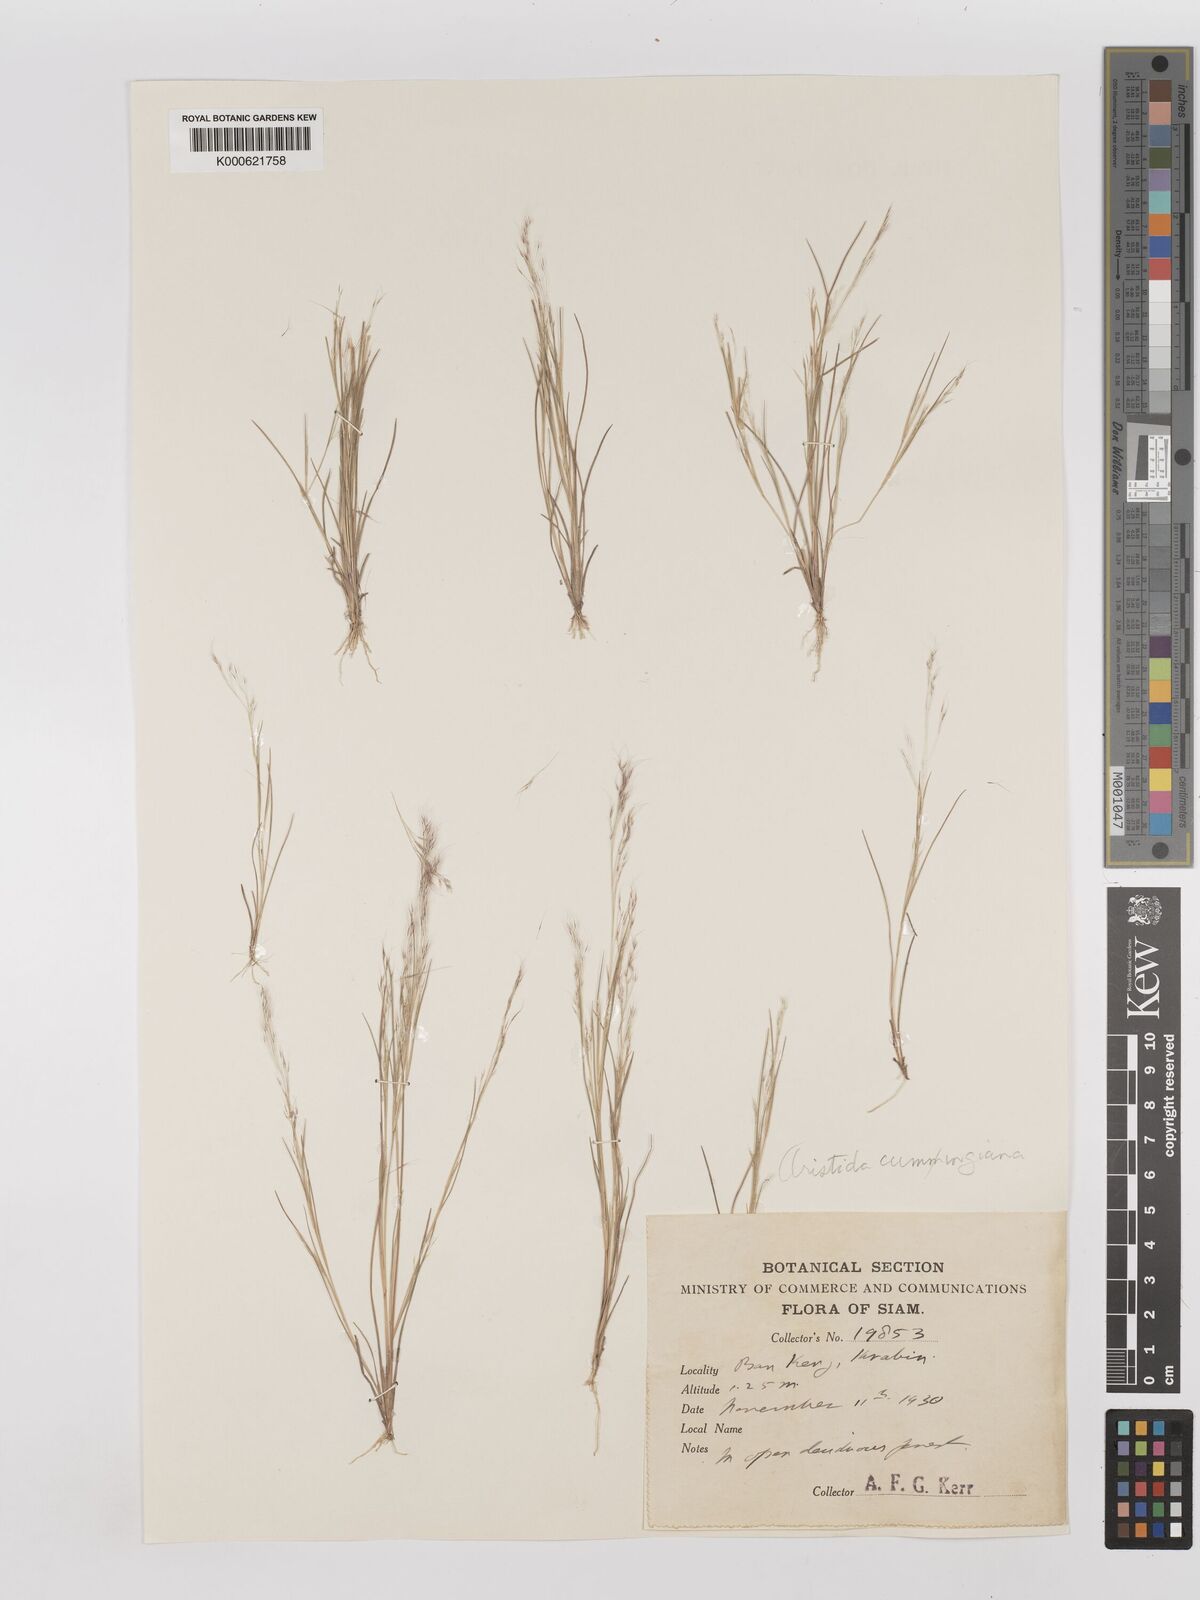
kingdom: Plantae
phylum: Tracheophyta
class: Liliopsida
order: Poales
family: Poaceae
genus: Aristida
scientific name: Aristida cumingiana
